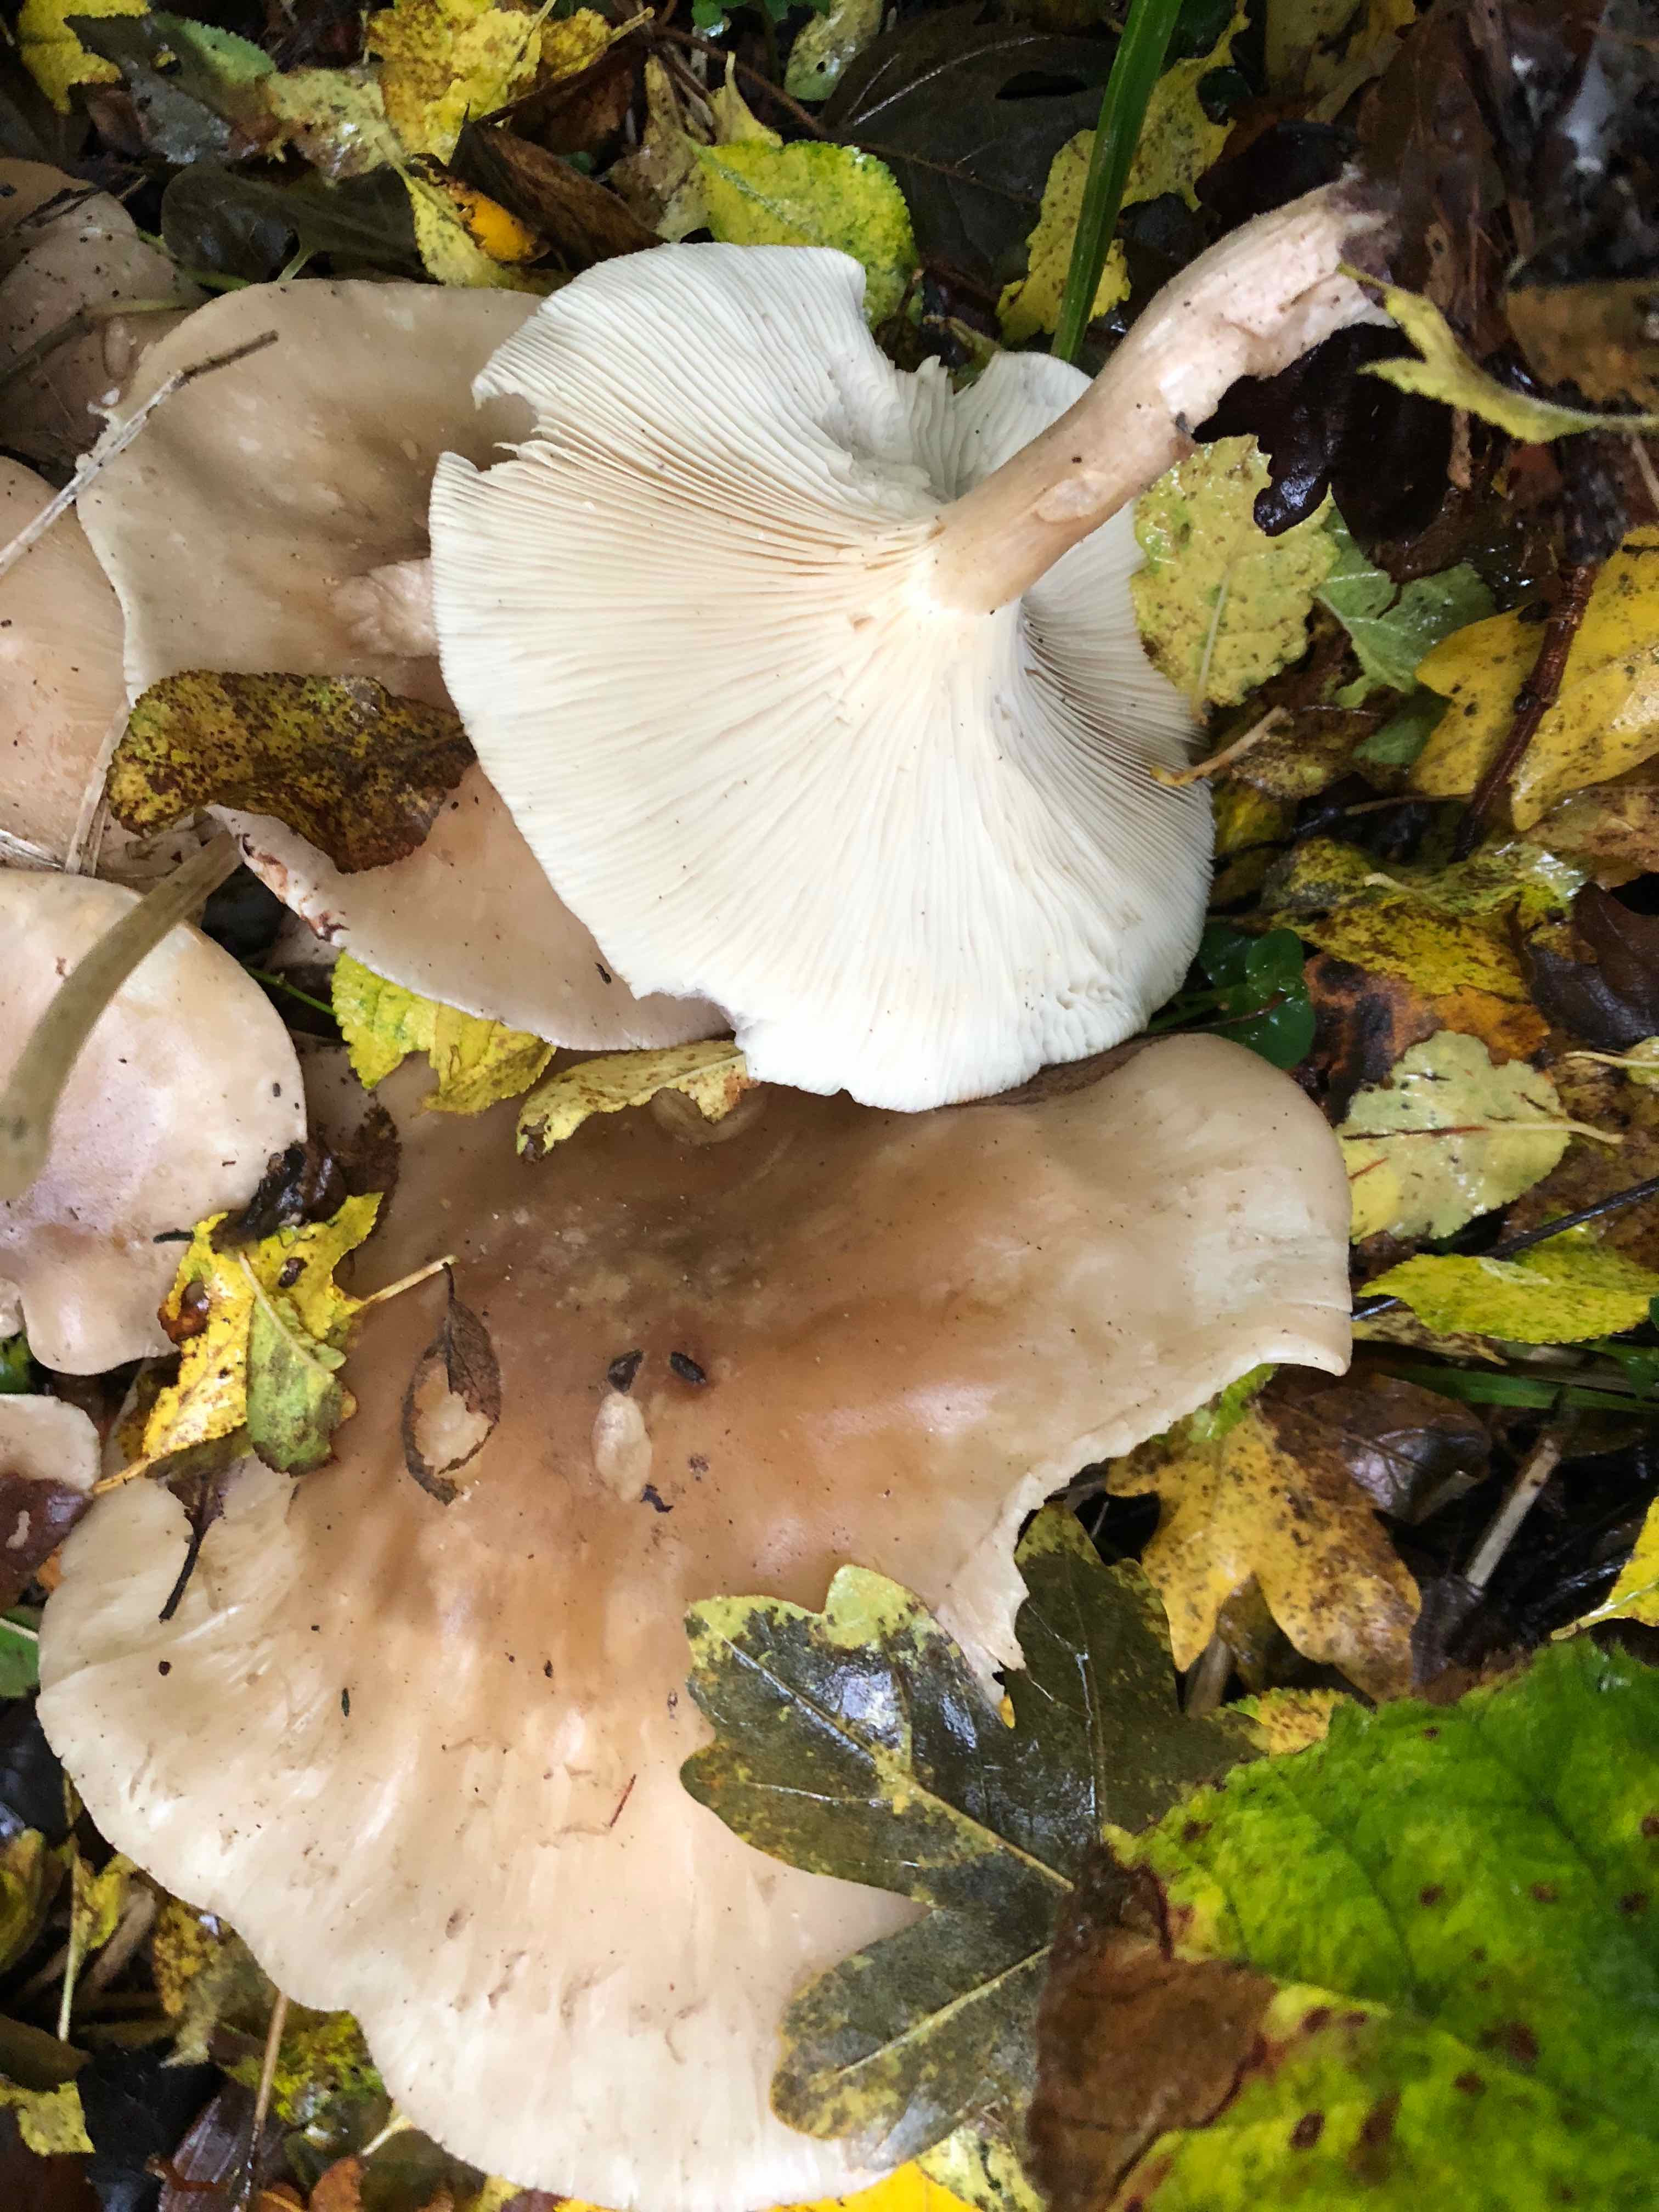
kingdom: Fungi
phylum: Basidiomycota
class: Agaricomycetes
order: Agaricales
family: Tricholomataceae
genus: Clitocybe
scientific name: Clitocybe nebularis
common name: tåge-tragthat
